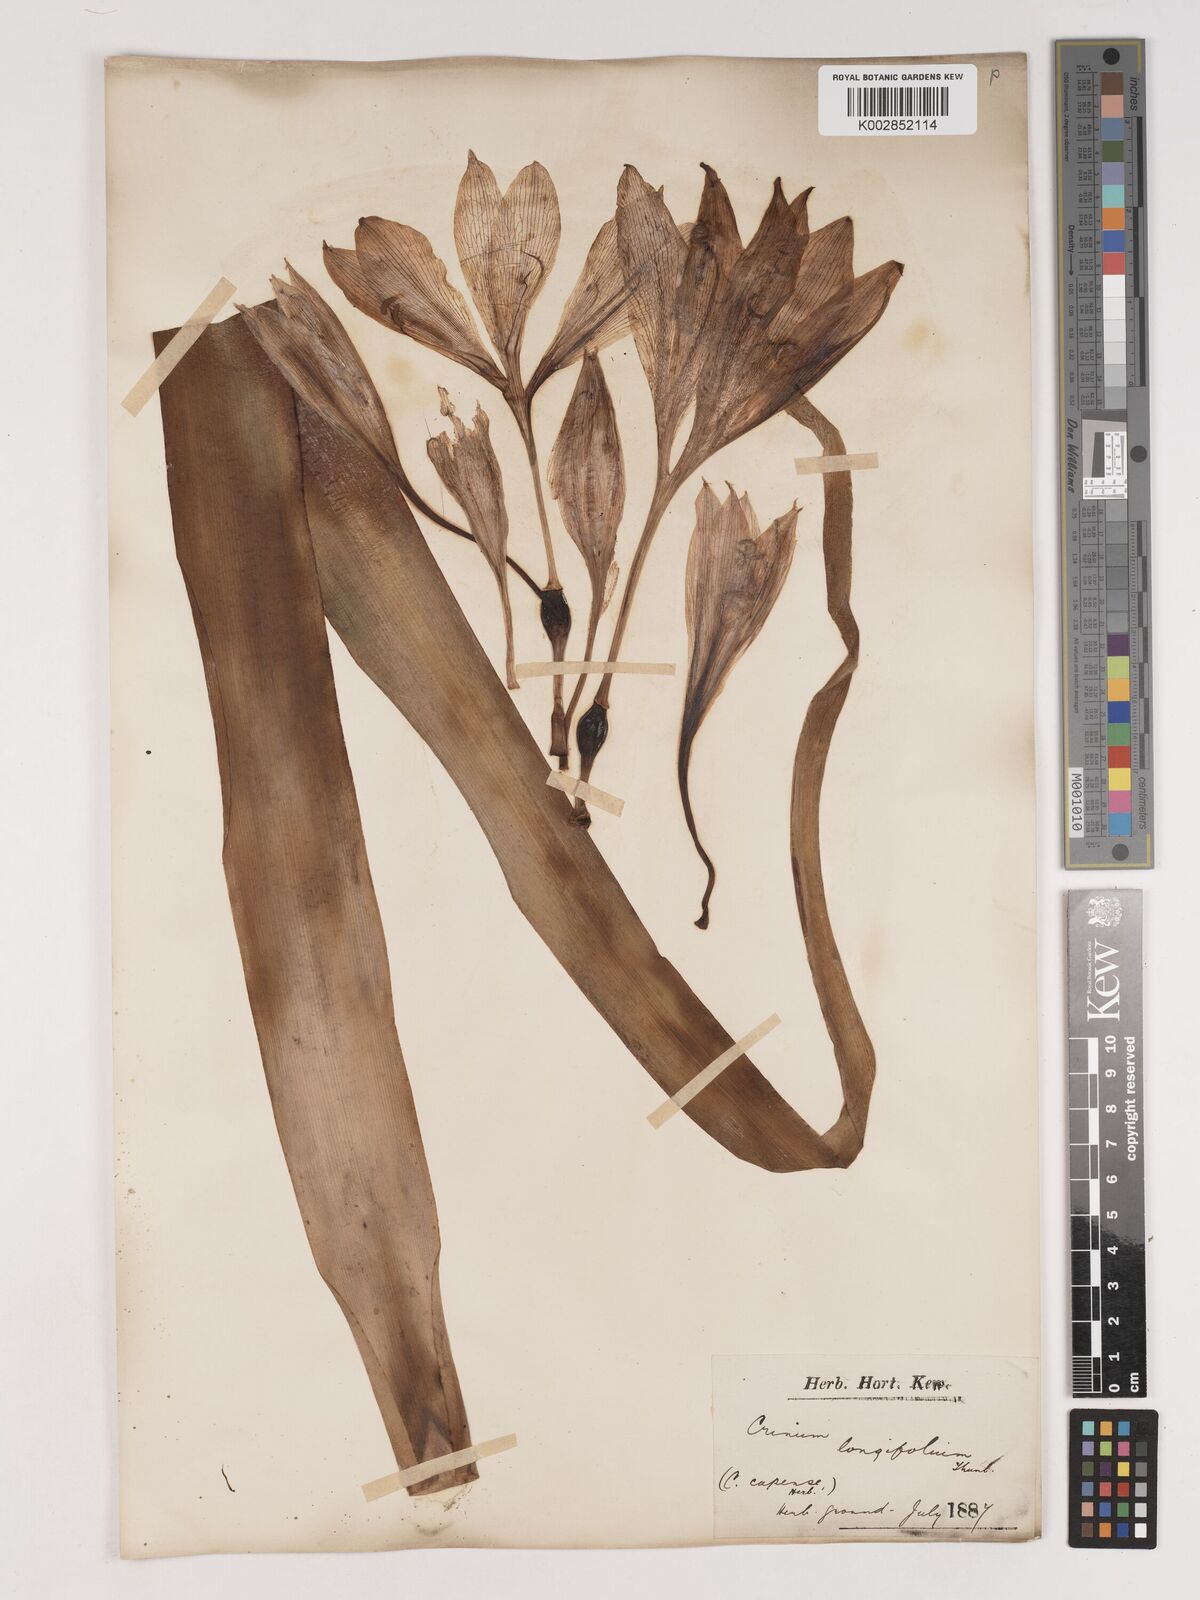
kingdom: Plantae
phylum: Tracheophyta
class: Liliopsida
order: Asparagales
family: Amaryllidaceae
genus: Ammocharis
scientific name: Ammocharis longifolia
